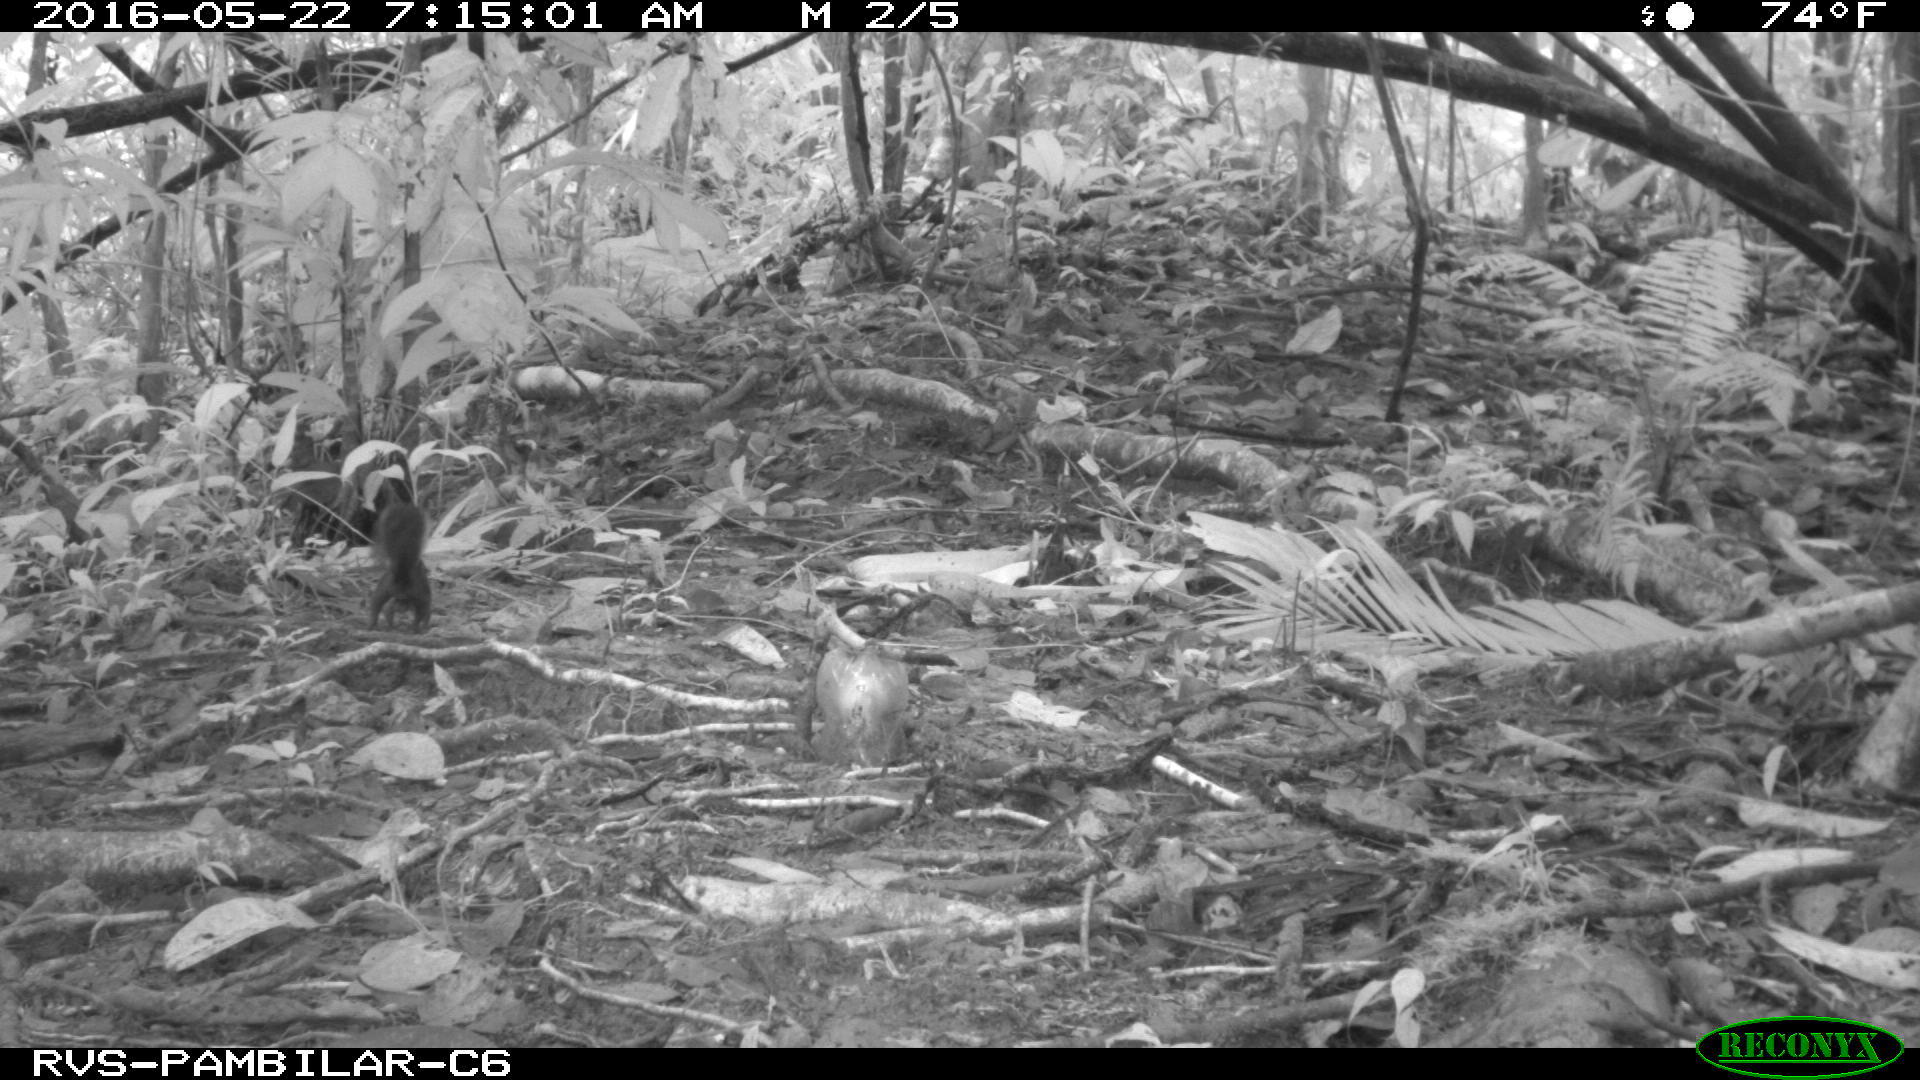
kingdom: Animalia
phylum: Chordata
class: Mammalia
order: Rodentia
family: Sciuridae
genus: Sciurus
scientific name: Sciurus granatensis
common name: Red-tailed squirrel
